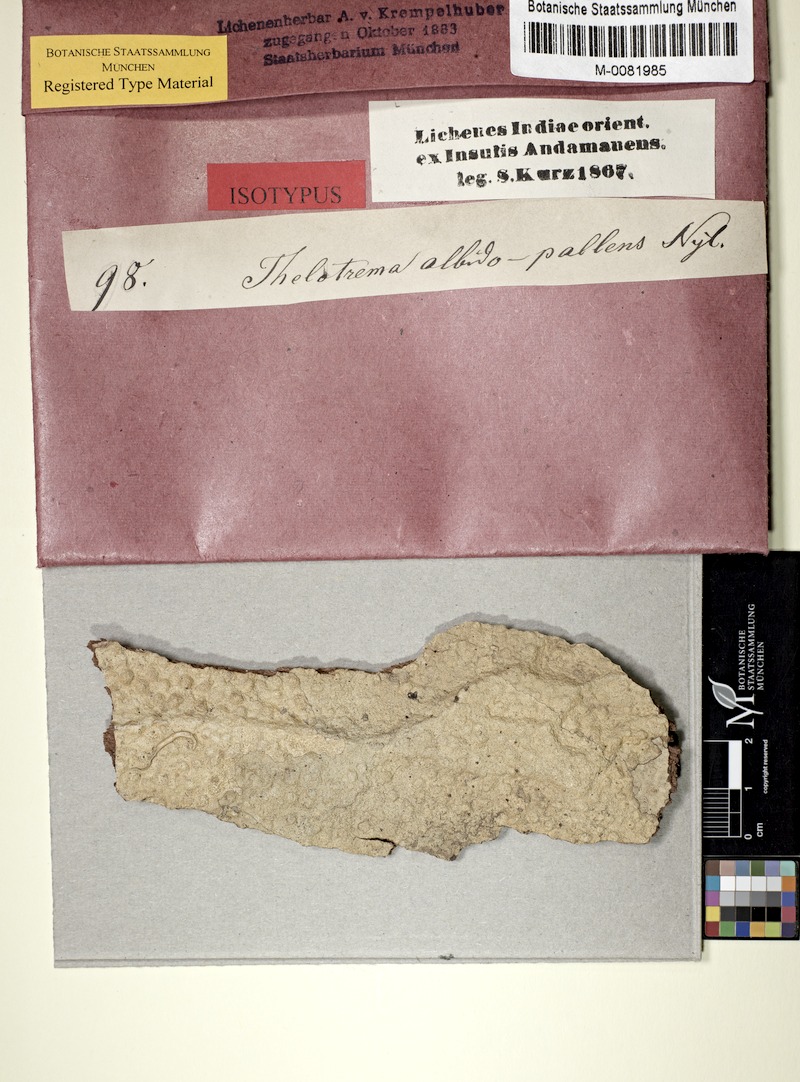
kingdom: Fungi
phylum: Ascomycota
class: Lecanoromycetes
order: Ostropales
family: Graphidaceae
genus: Thelotrema
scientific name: Thelotrema albidopallens
